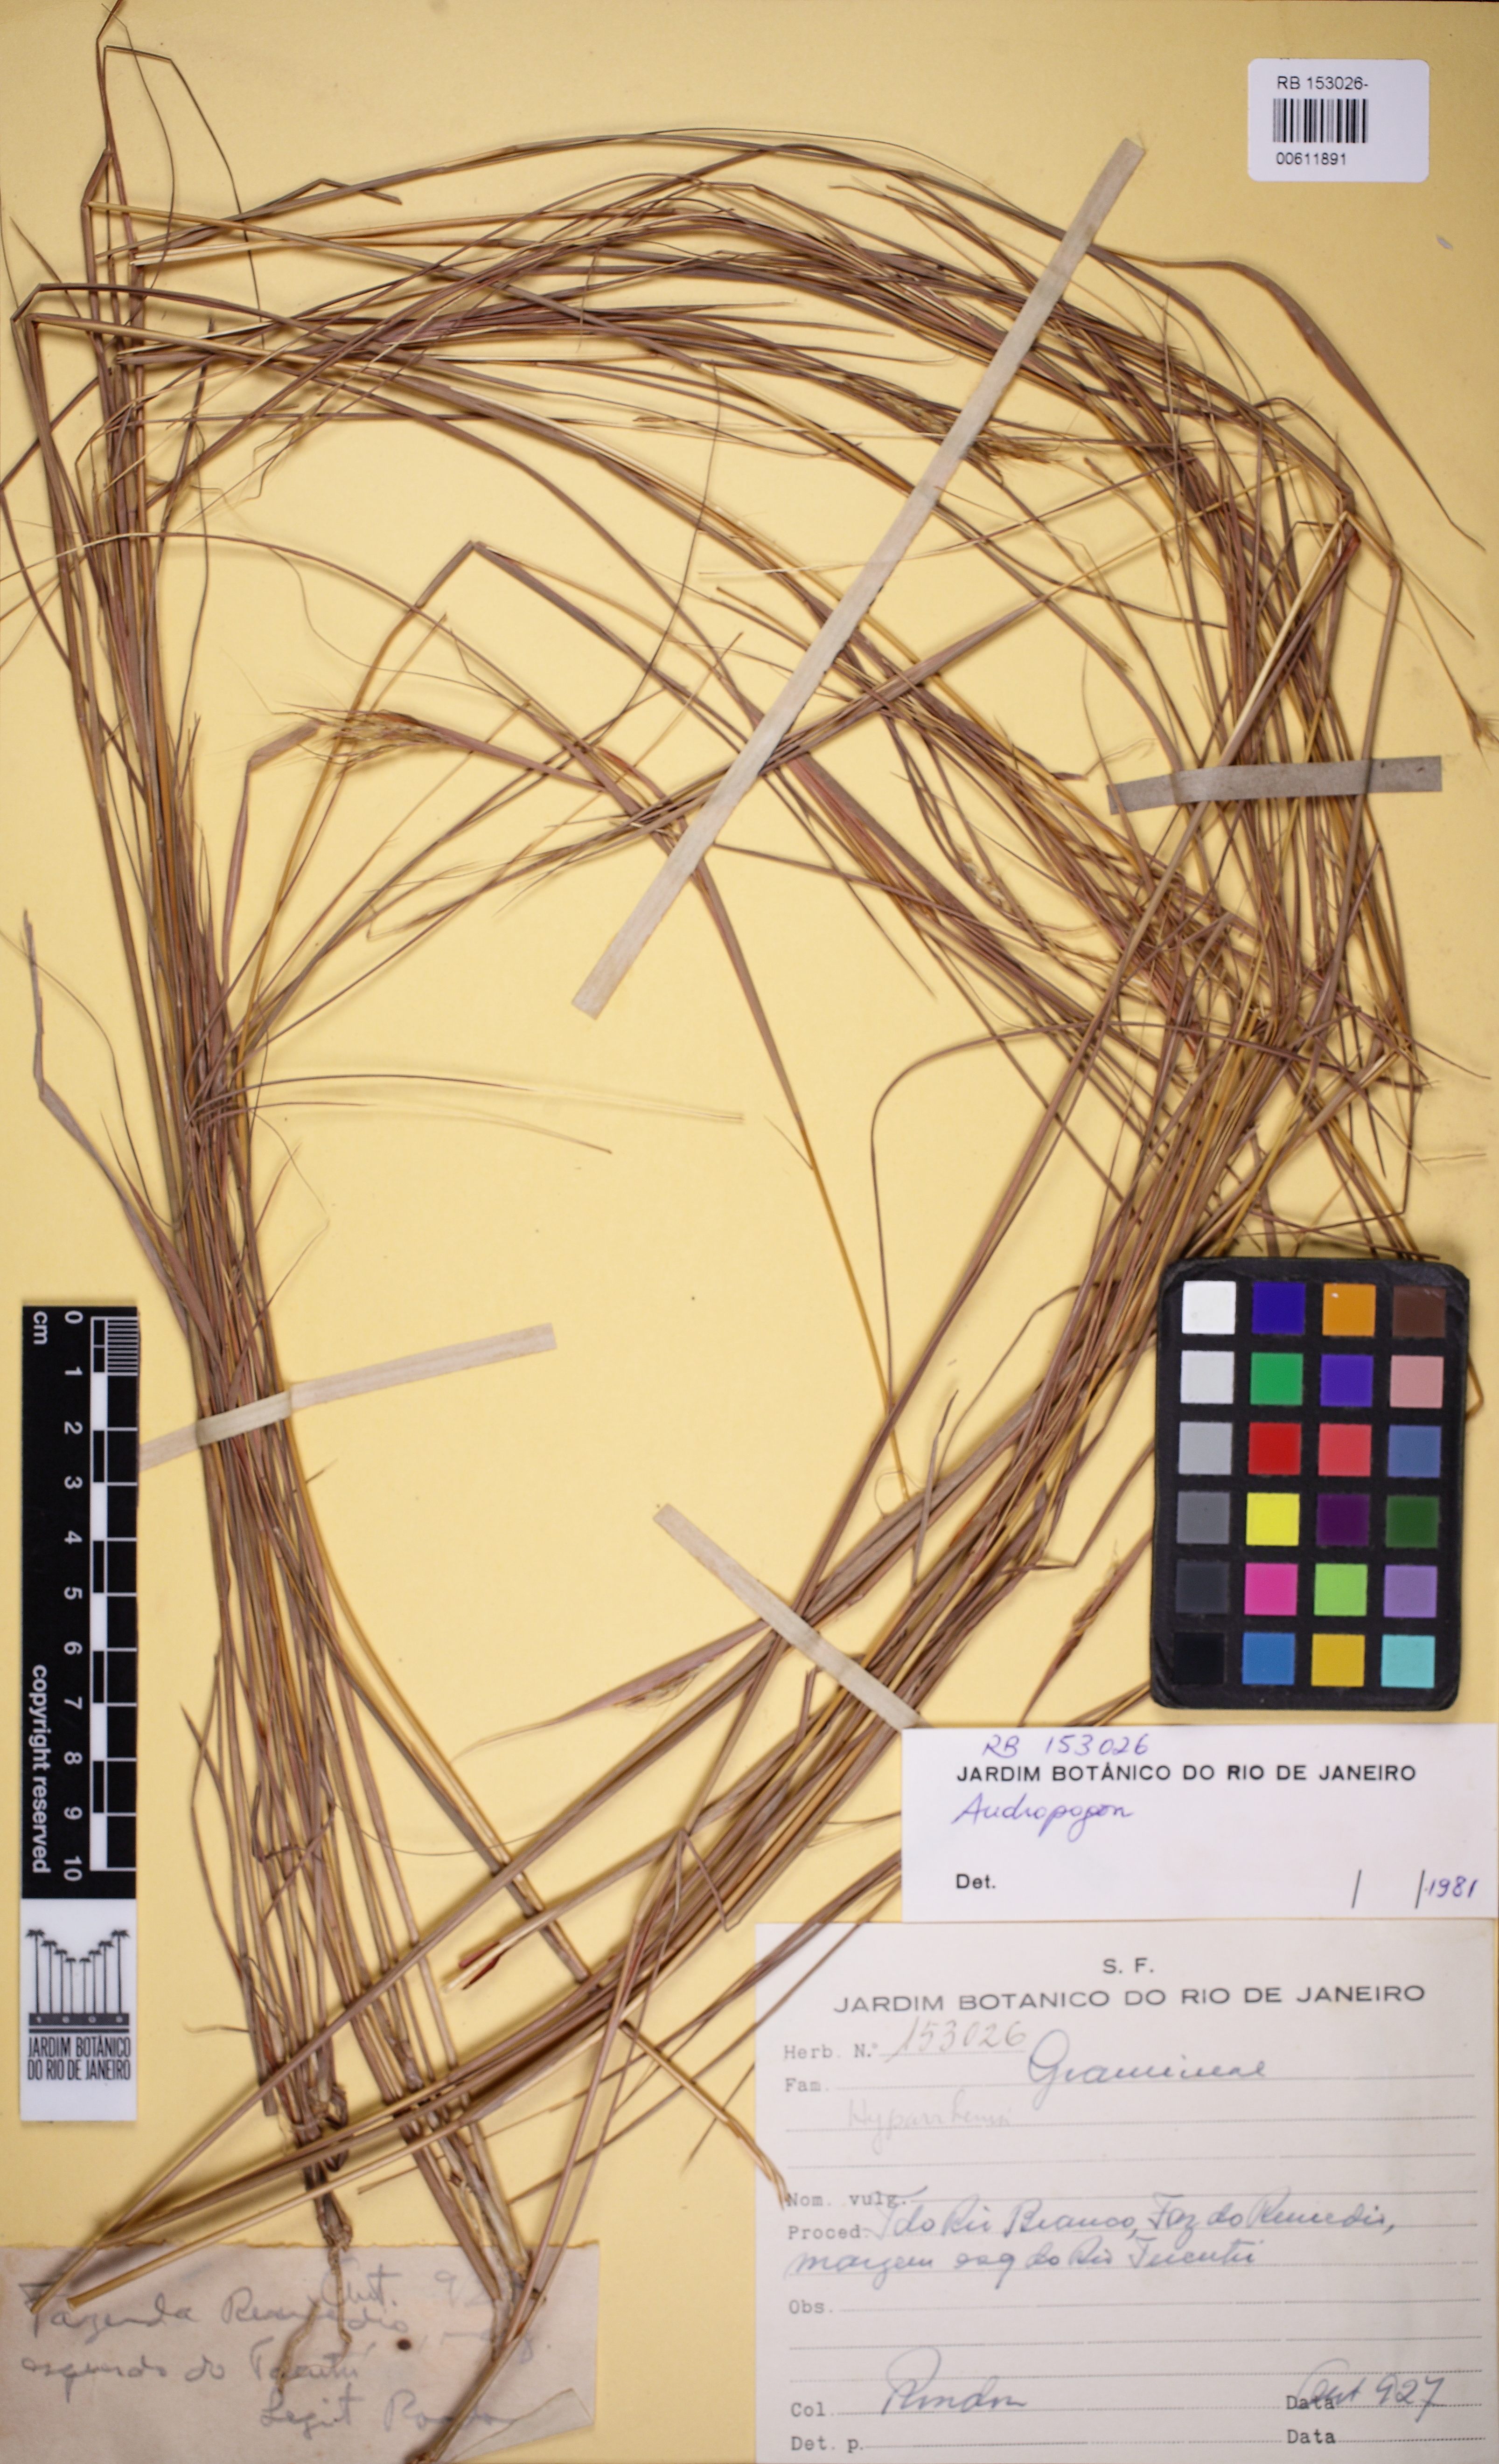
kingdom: Plantae
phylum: Tracheophyta
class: Liliopsida
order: Poales
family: Poaceae
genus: Andropogon
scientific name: Andropogon
